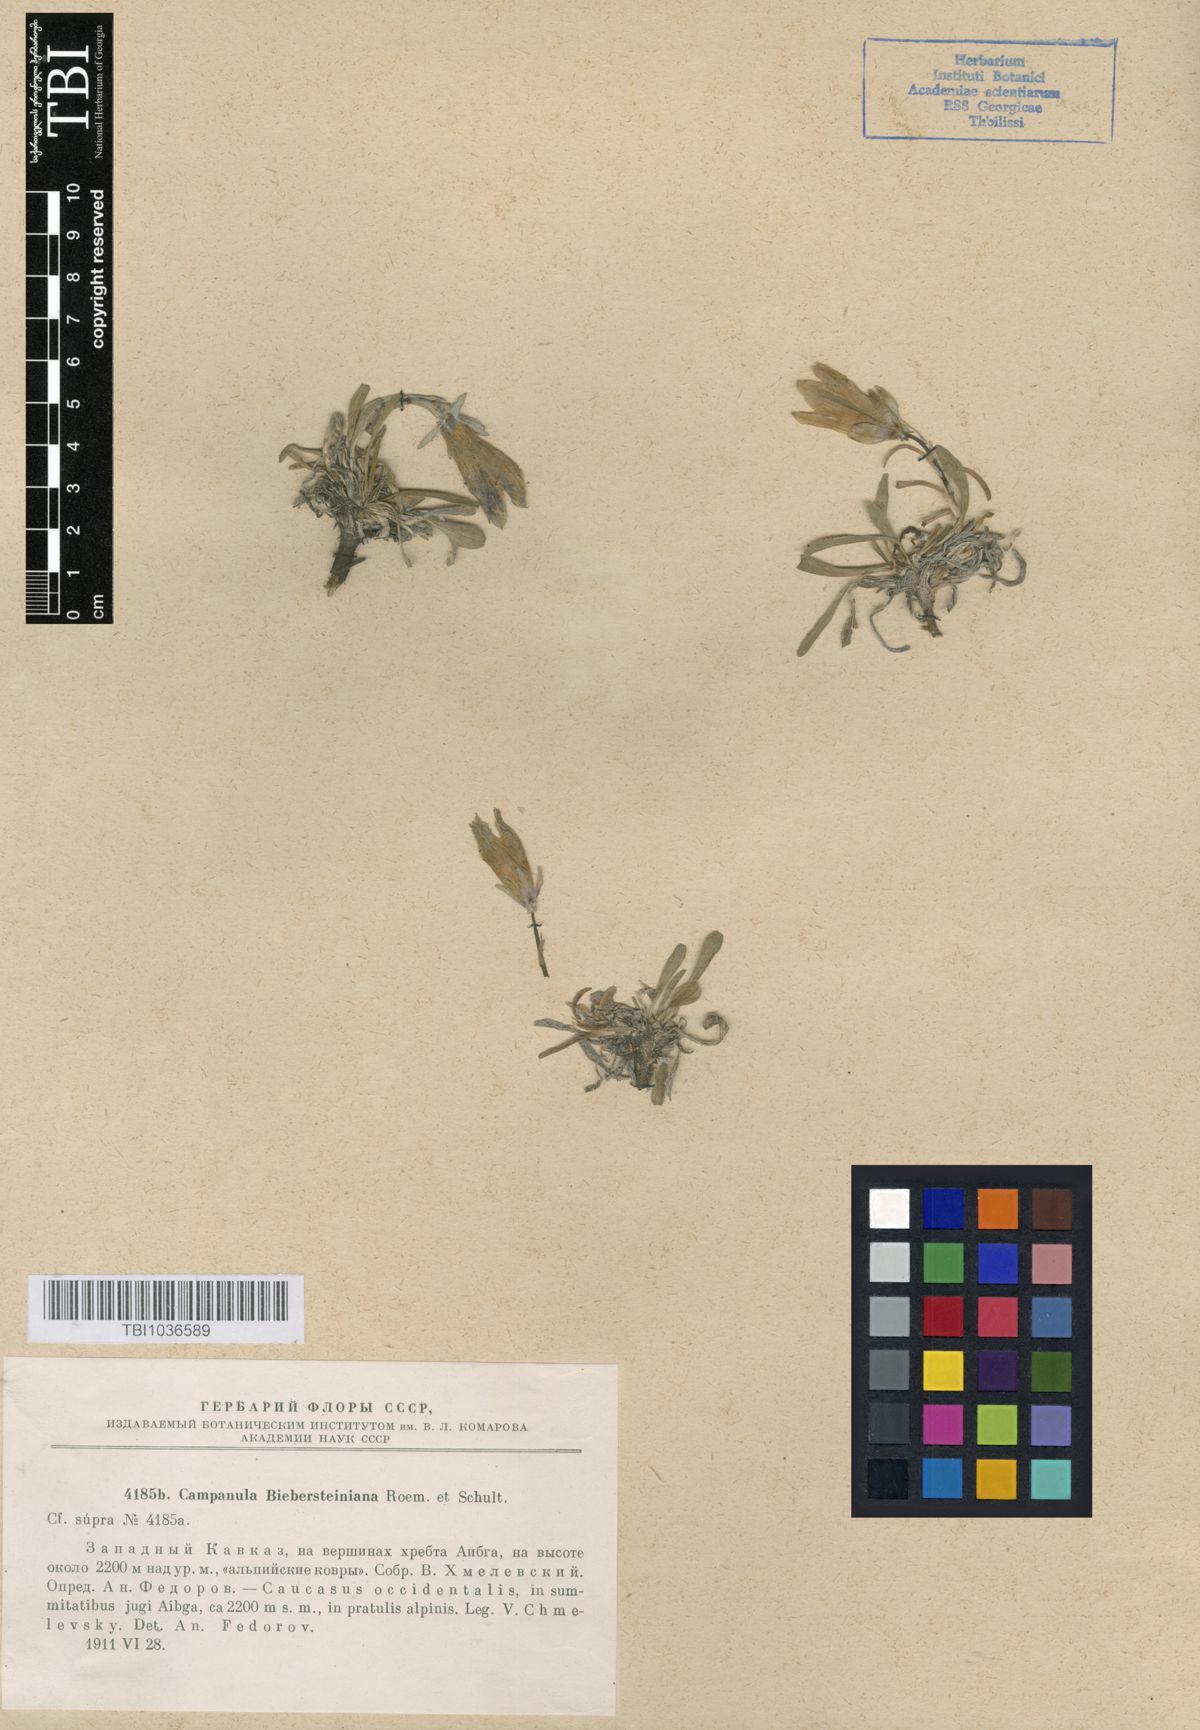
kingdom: Plantae
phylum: Tracheophyta
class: Magnoliopsida
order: Asterales
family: Campanulaceae
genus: Campanula
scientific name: Campanula tridentata
